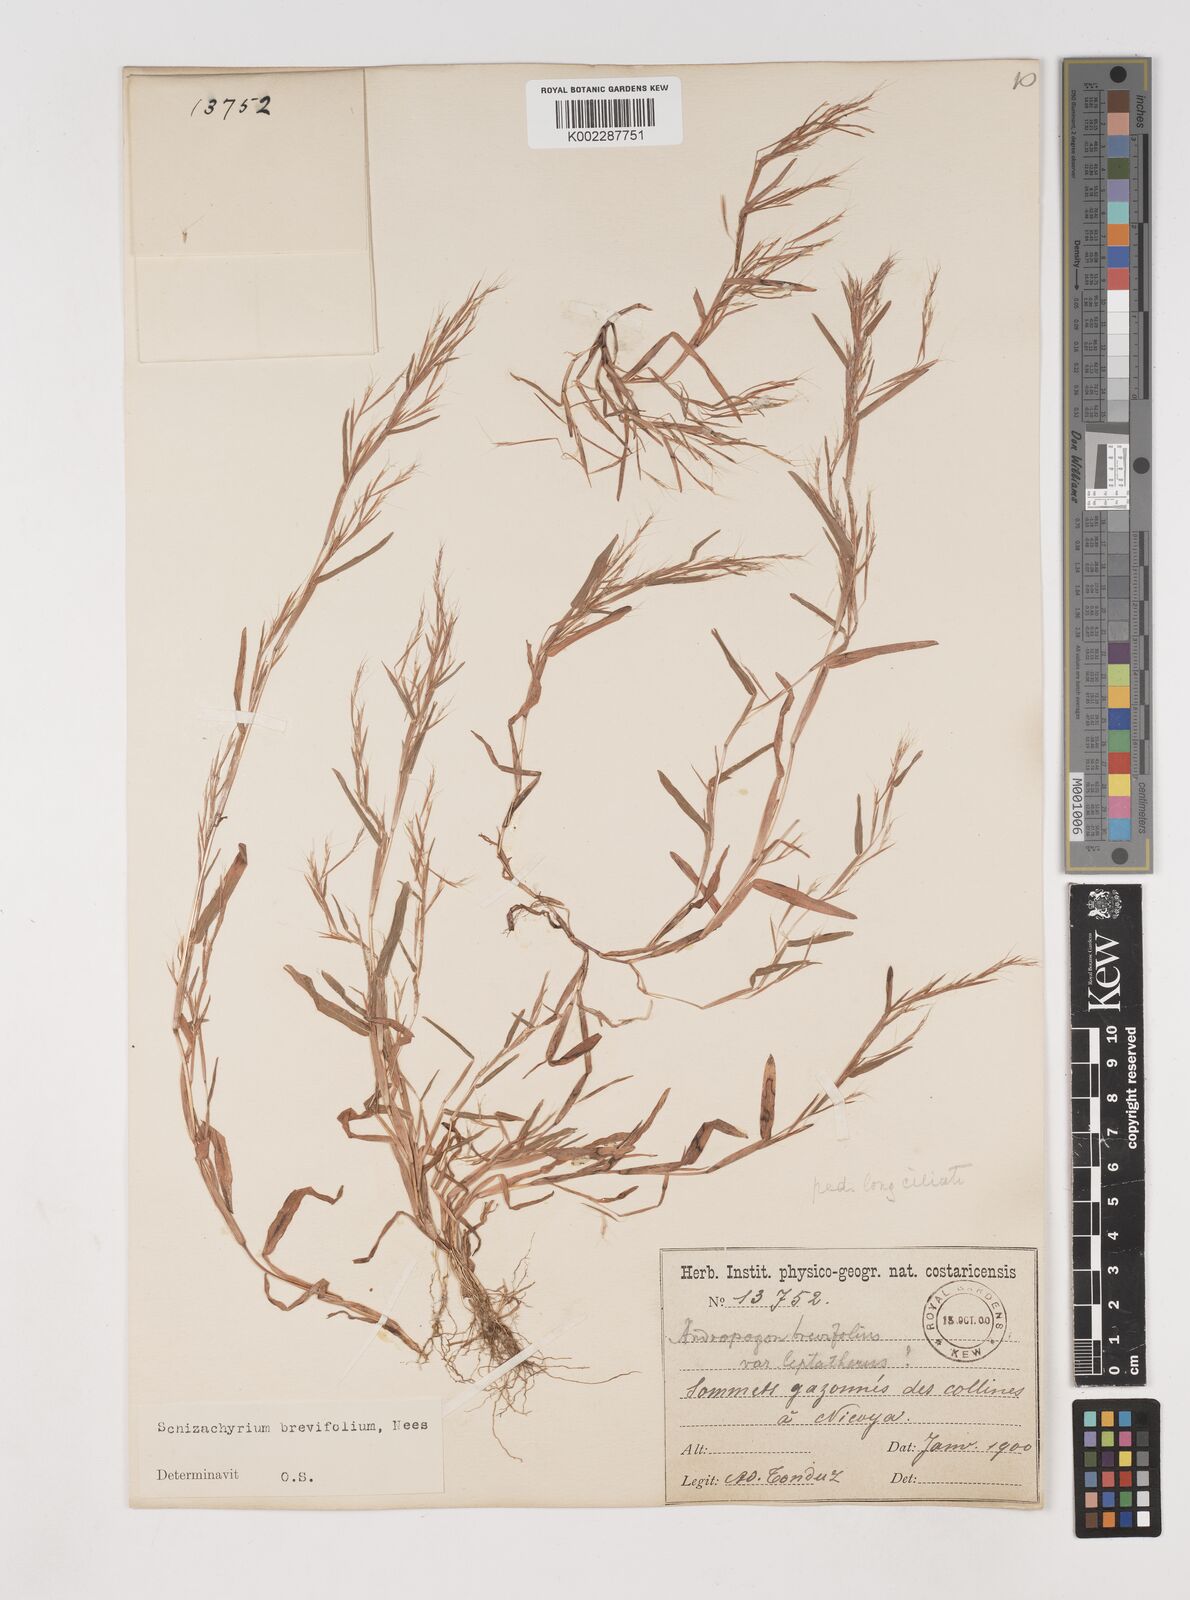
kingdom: Plantae
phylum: Tracheophyta
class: Liliopsida
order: Poales
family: Poaceae
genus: Schizachyrium
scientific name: Schizachyrium brevifolium
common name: Serillo dulce
